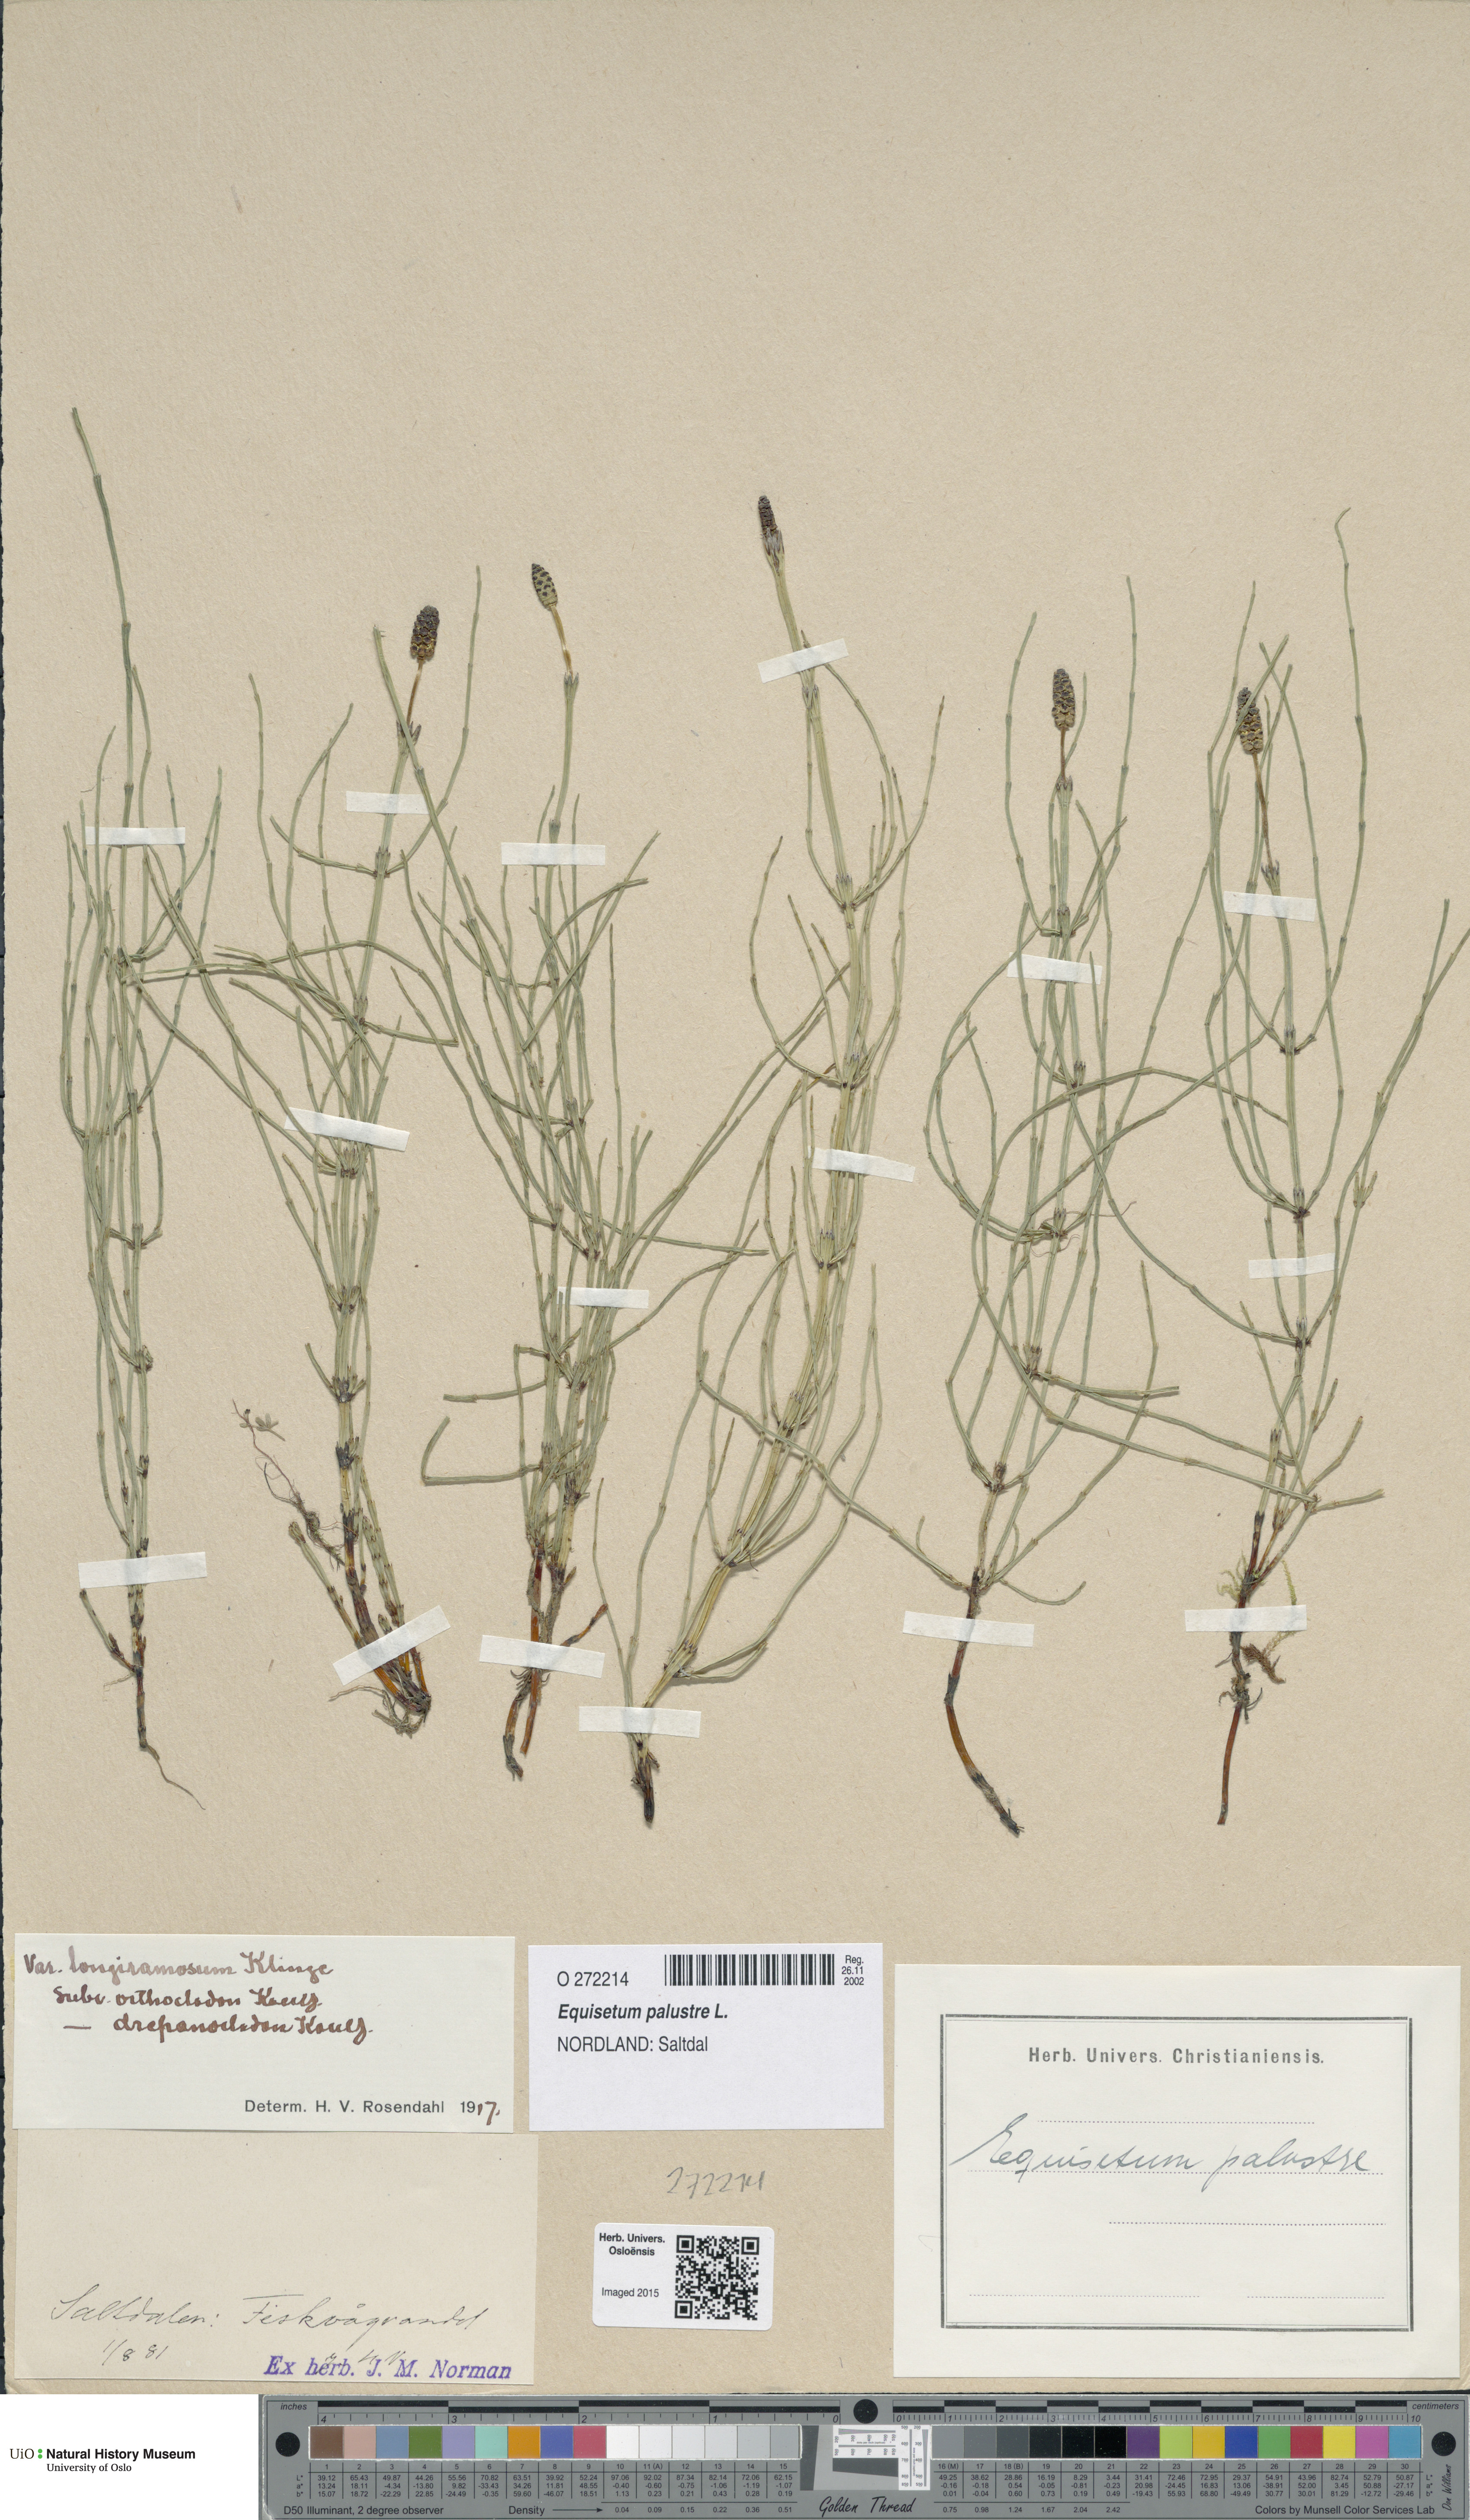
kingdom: Plantae
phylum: Tracheophyta
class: Polypodiopsida
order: Equisetales
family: Equisetaceae
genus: Equisetum
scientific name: Equisetum palustre
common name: Marsh horsetail
